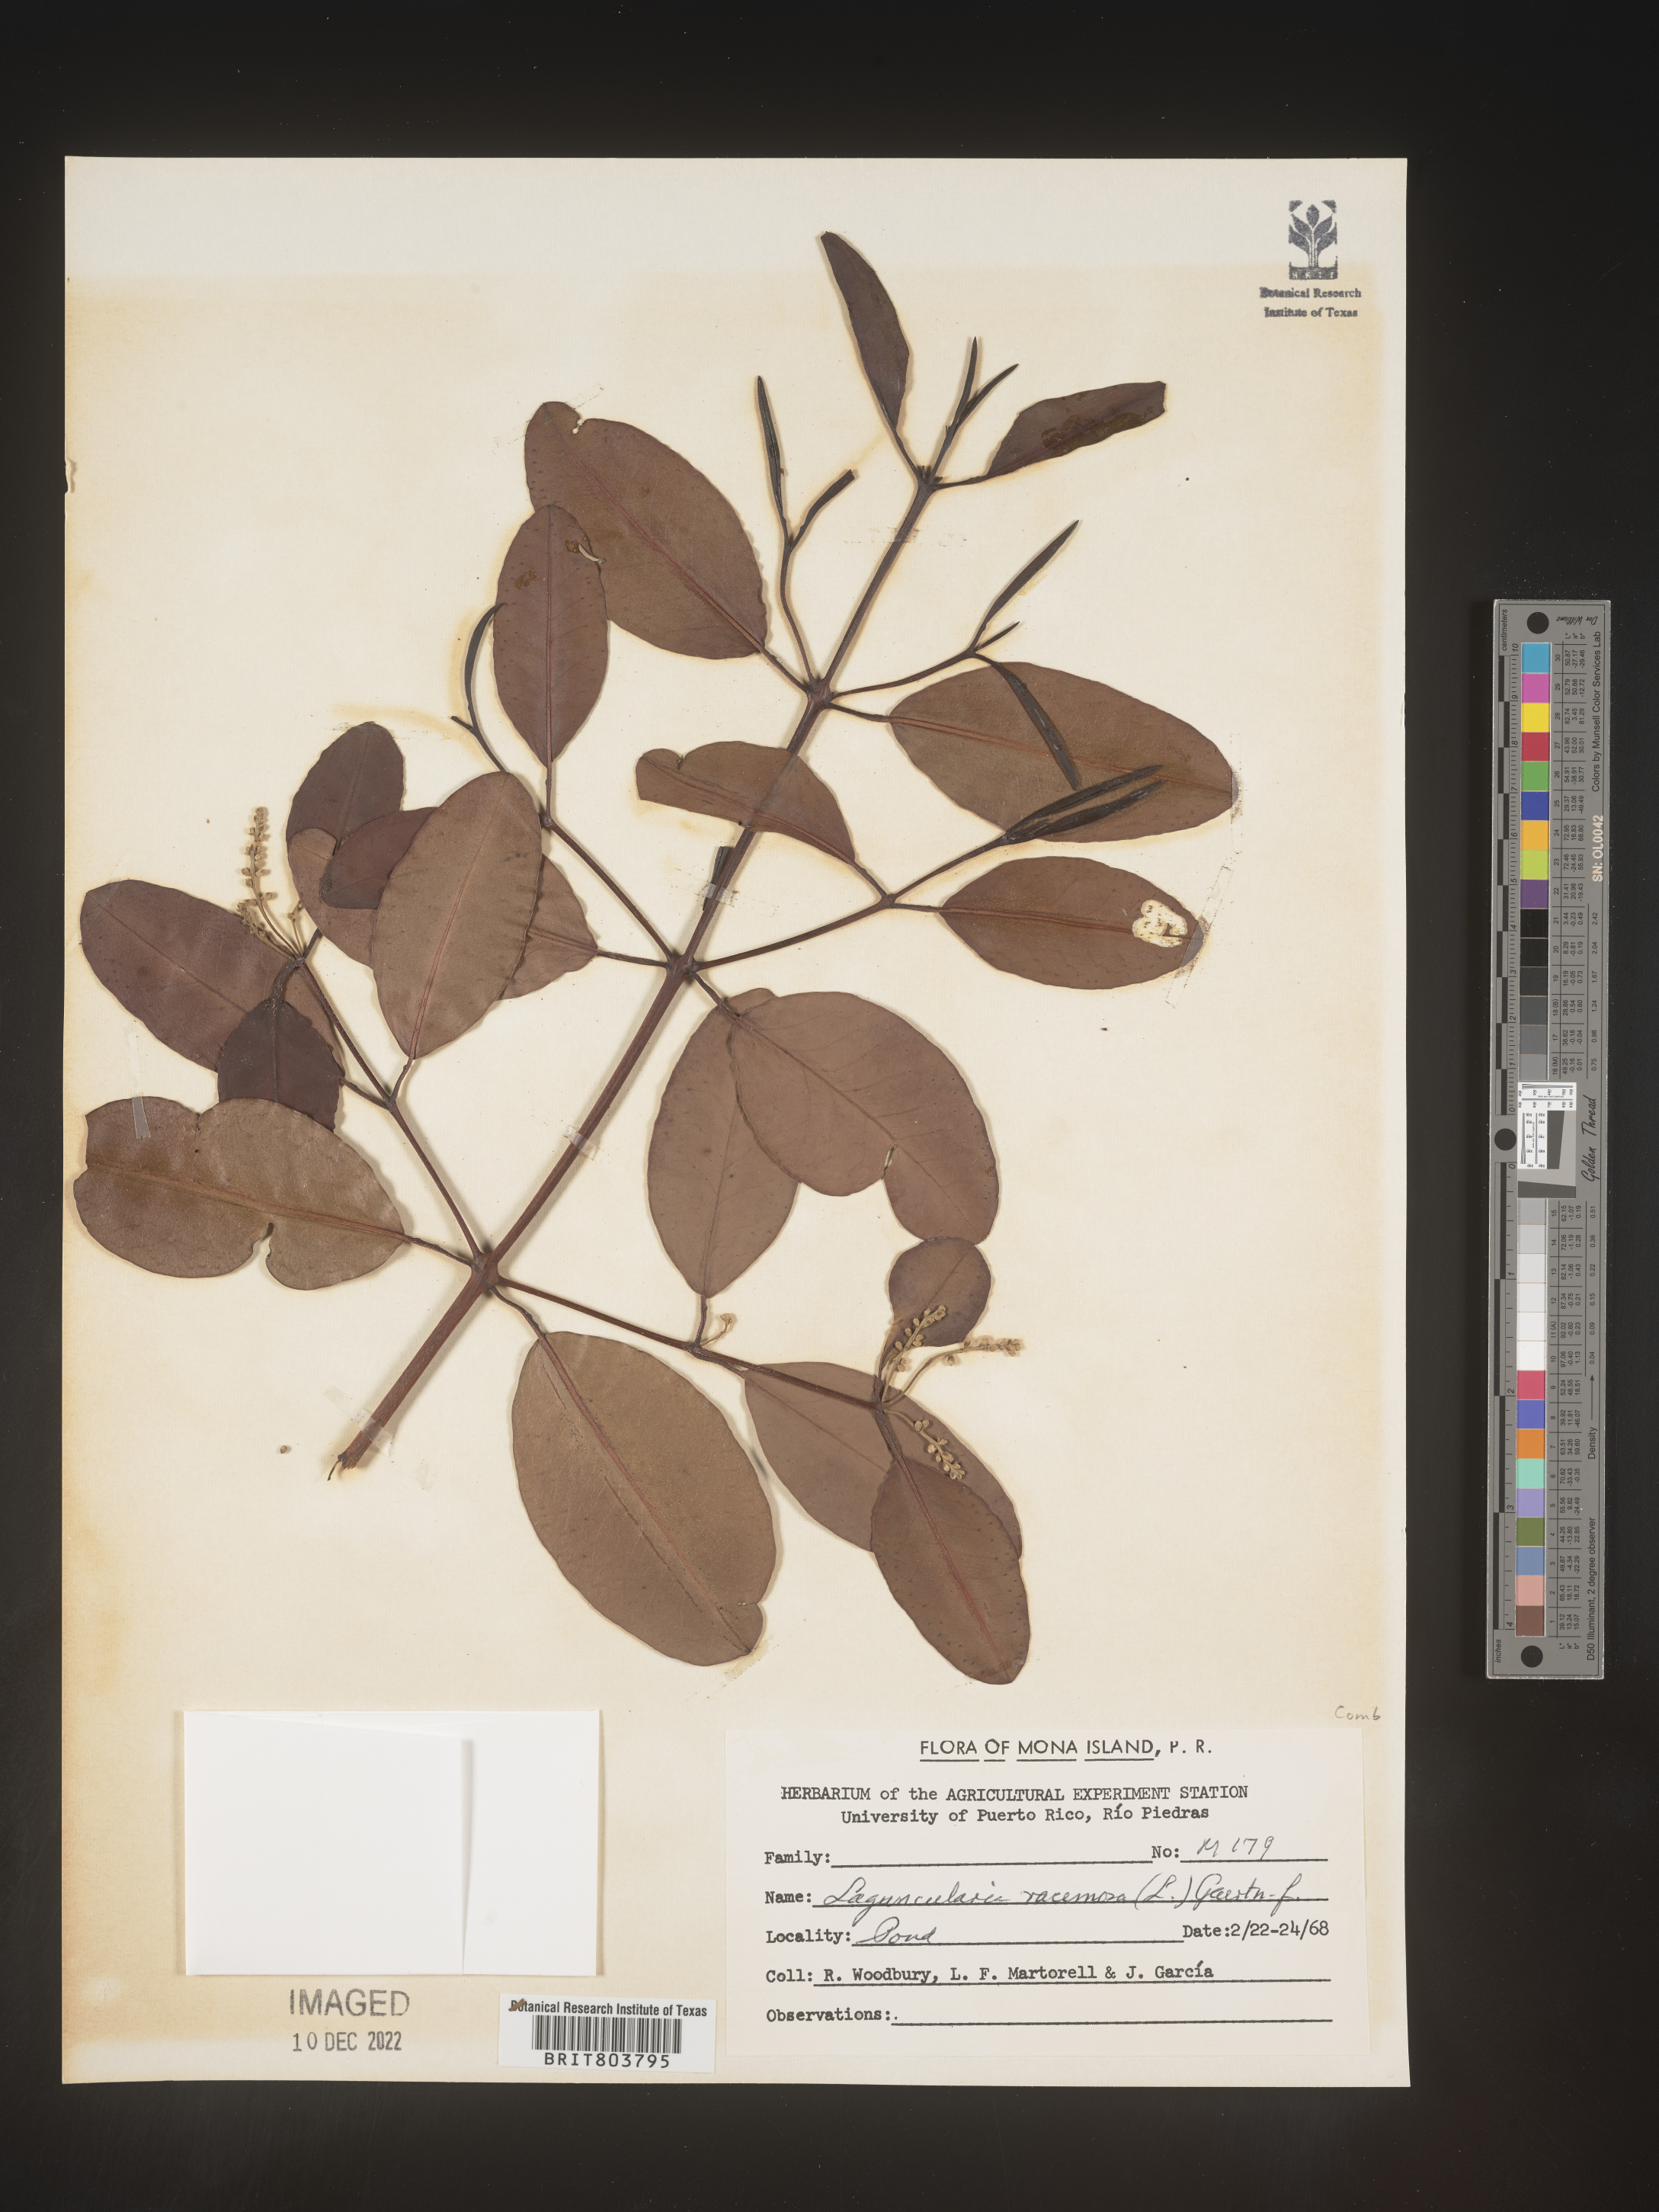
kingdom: Plantae
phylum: Tracheophyta
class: Magnoliopsida
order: Myrtales
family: Combretaceae
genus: Laguncularia
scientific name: Laguncularia
